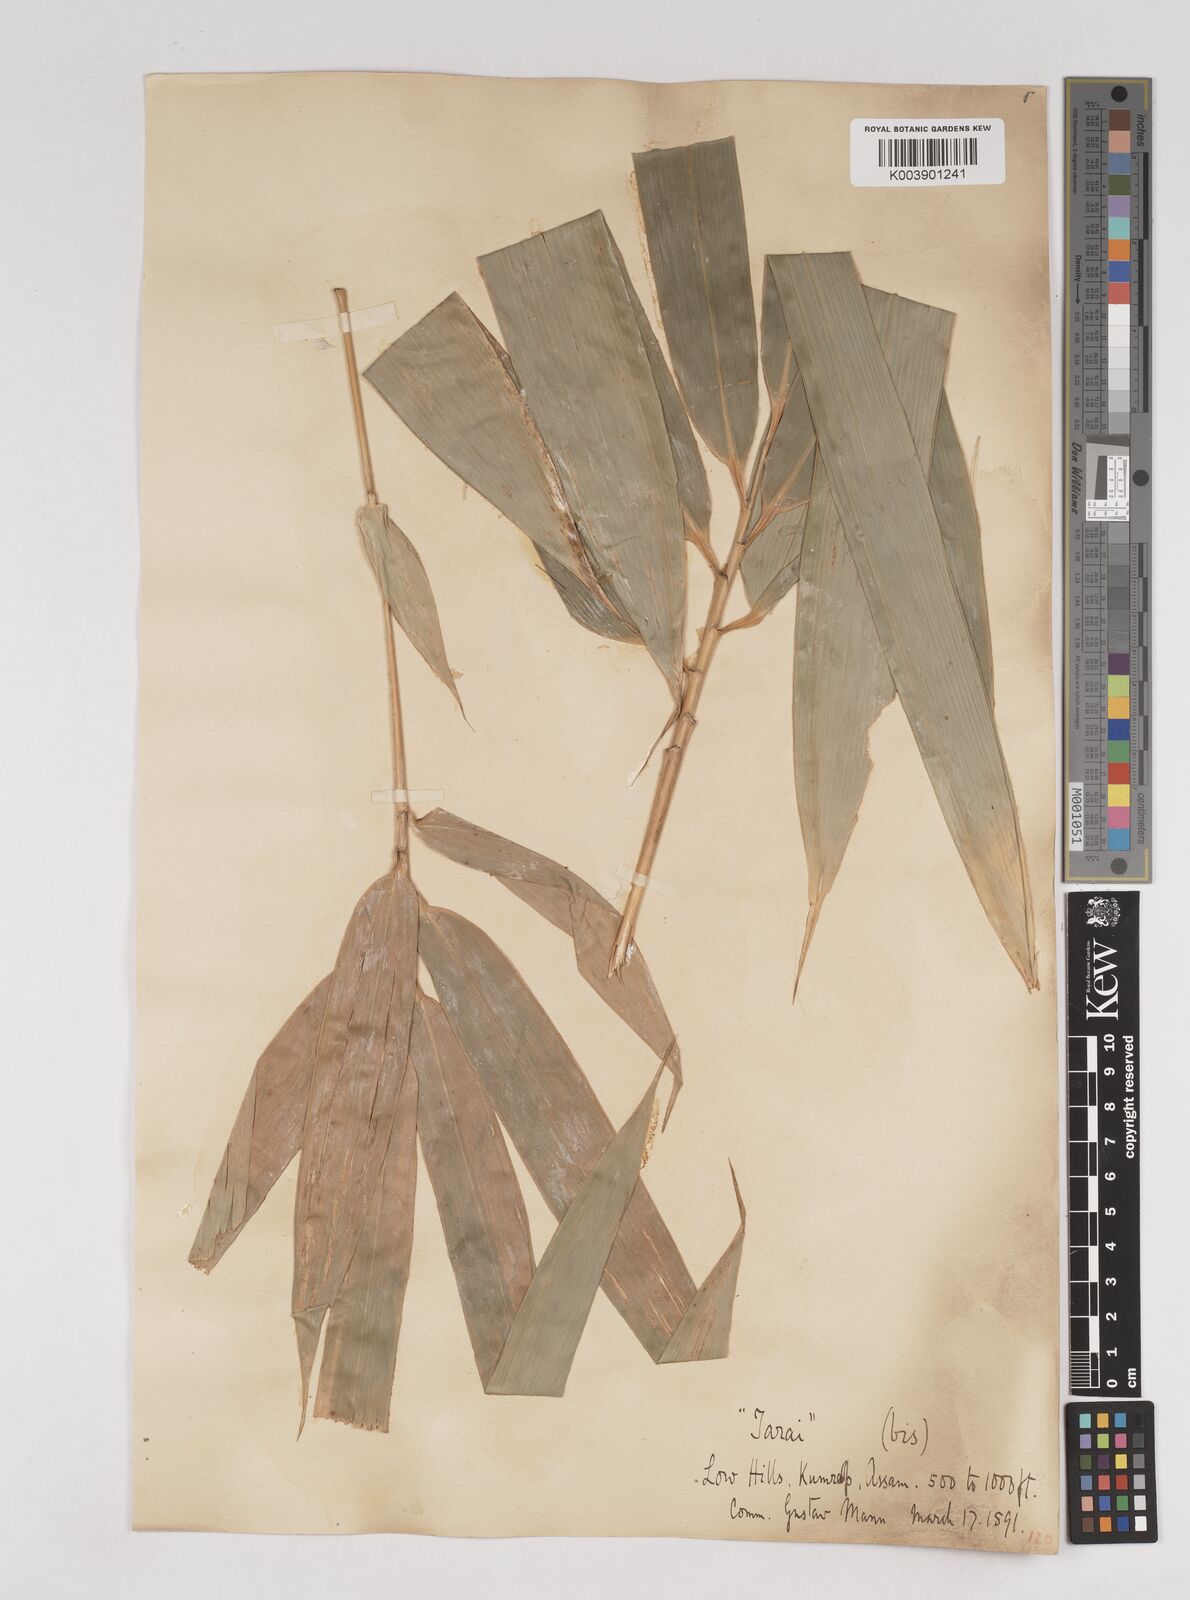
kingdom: Plantae
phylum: Tracheophyta
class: Liliopsida
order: Poales
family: Poaceae
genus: Melocanna
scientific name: Melocanna baccifera
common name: Berry bamboo
